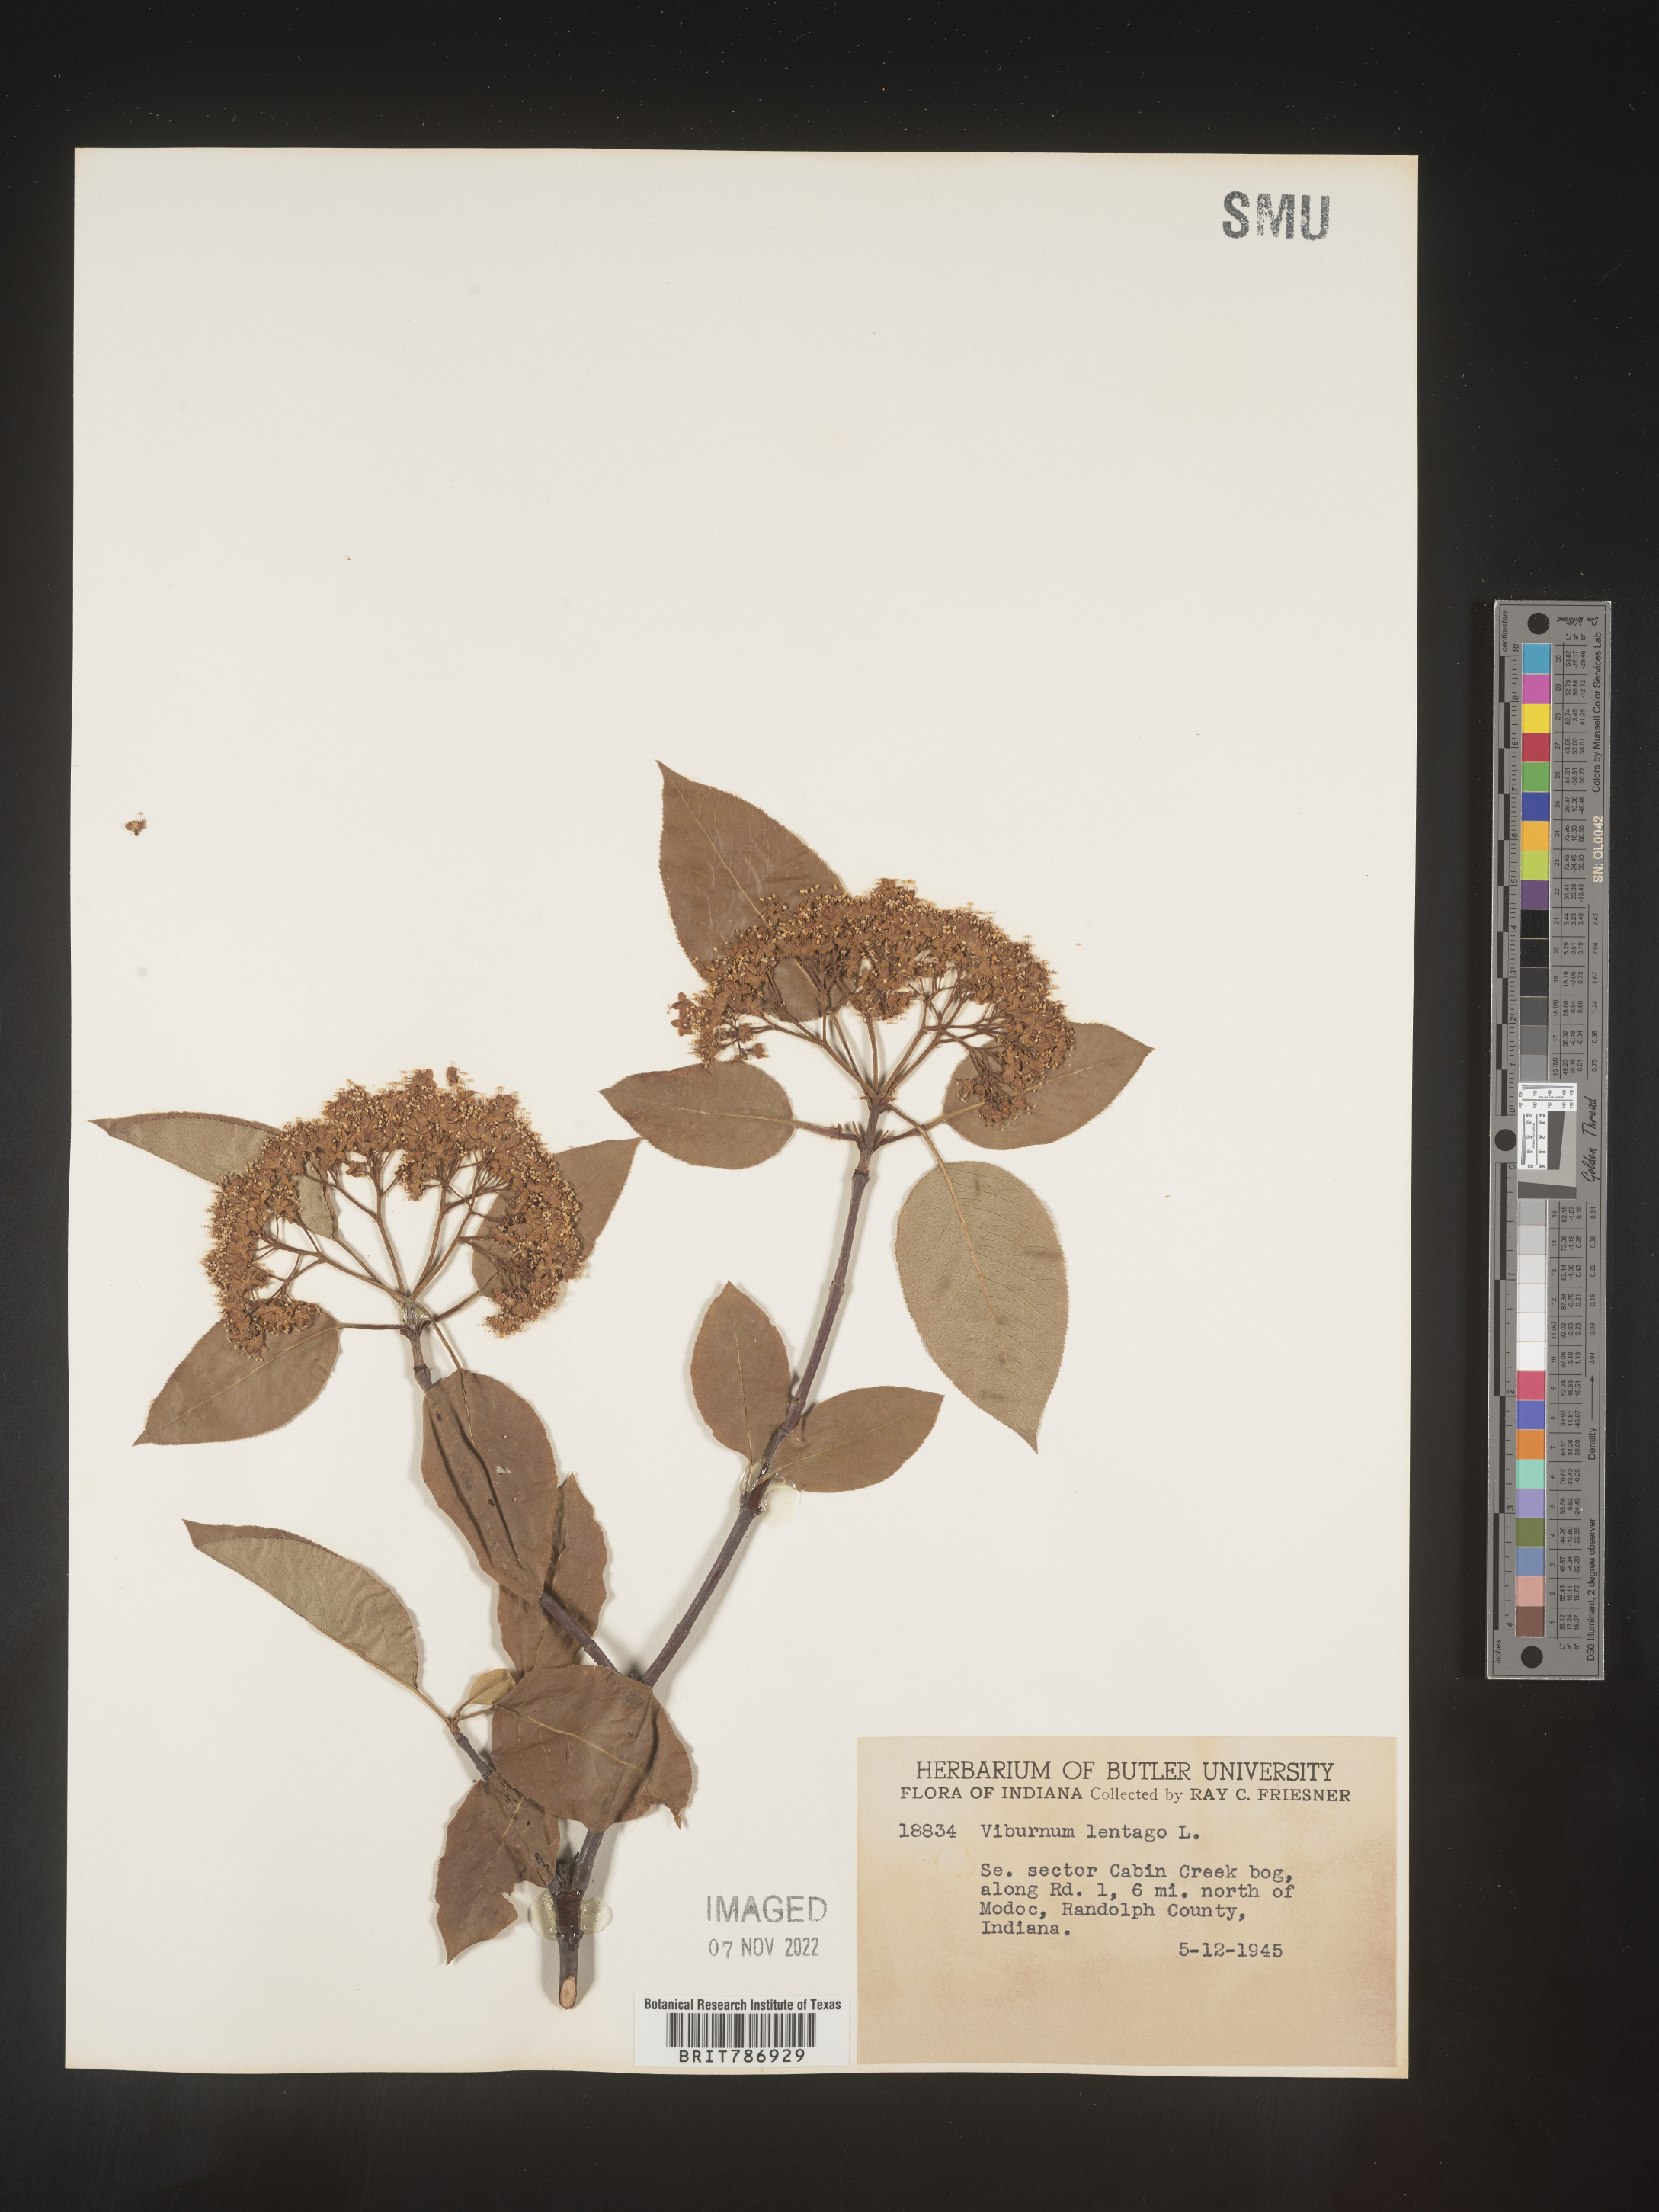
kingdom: Plantae
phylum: Tracheophyta
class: Magnoliopsida
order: Dipsacales
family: Viburnaceae
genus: Viburnum
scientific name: Viburnum lentago
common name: Black haw
